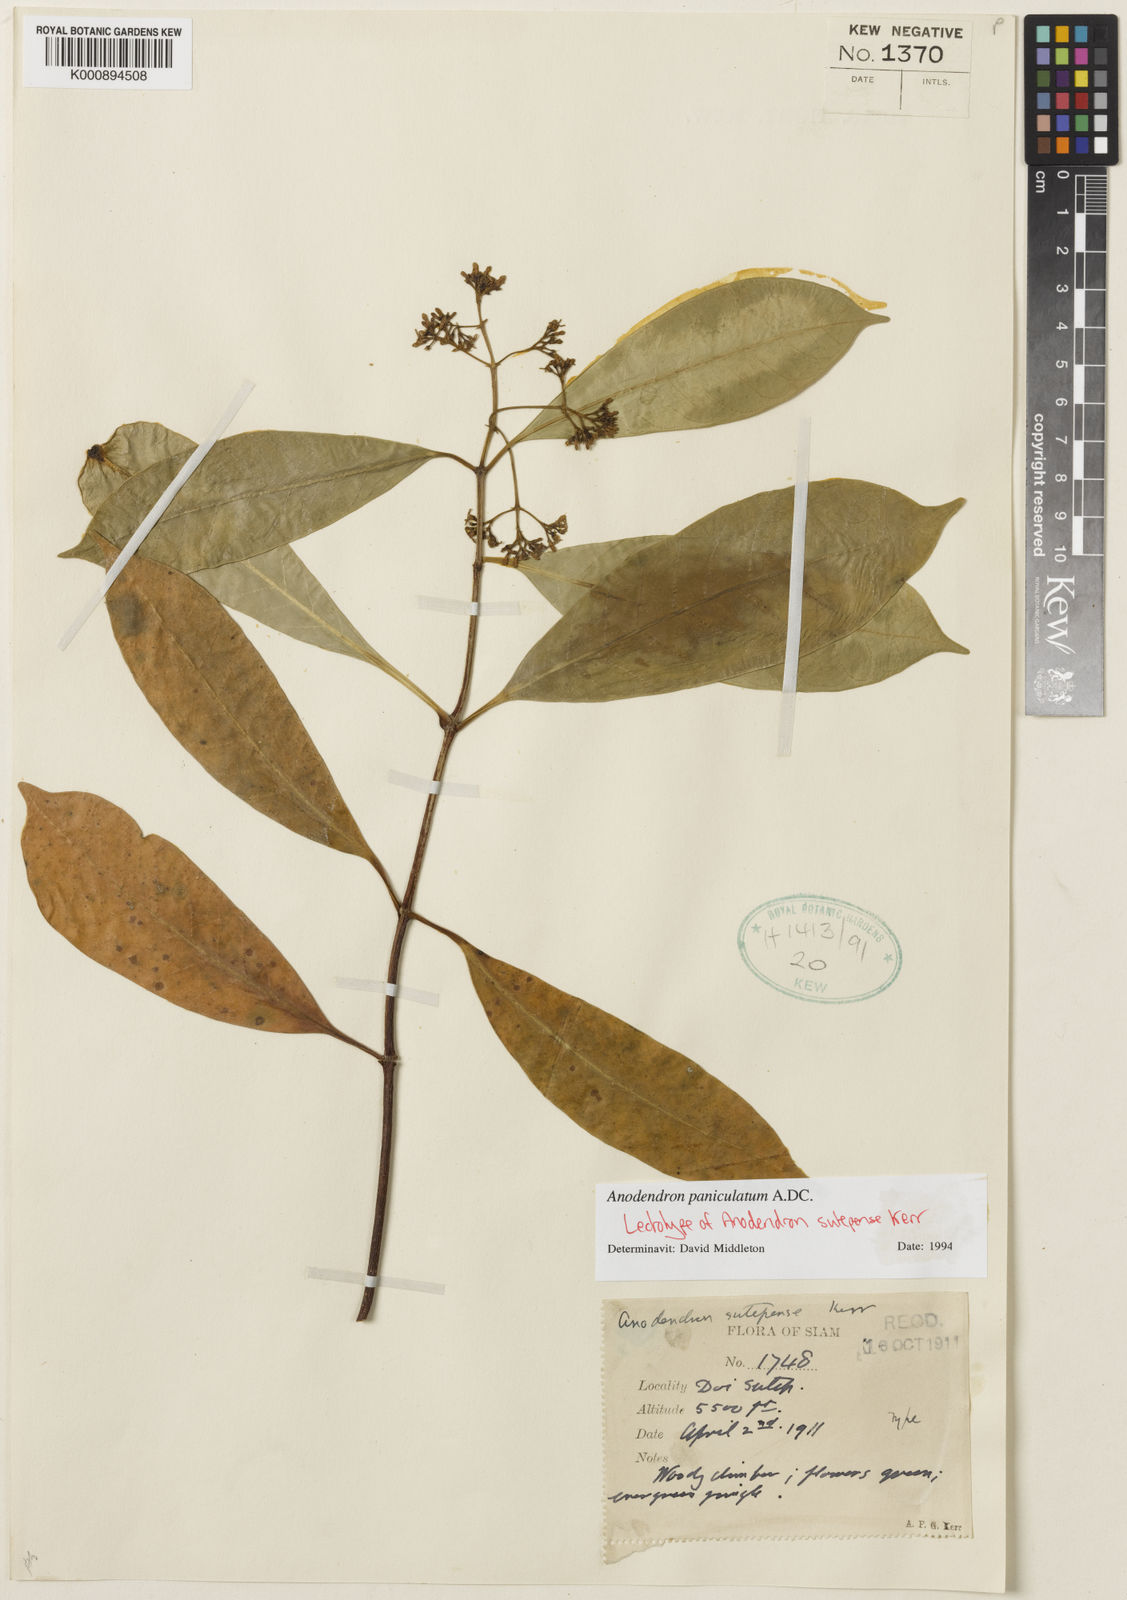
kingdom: Plantae
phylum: Tracheophyta
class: Magnoliopsida
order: Gentianales
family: Apocynaceae
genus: Anodendron
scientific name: Anodendron parviflorum
